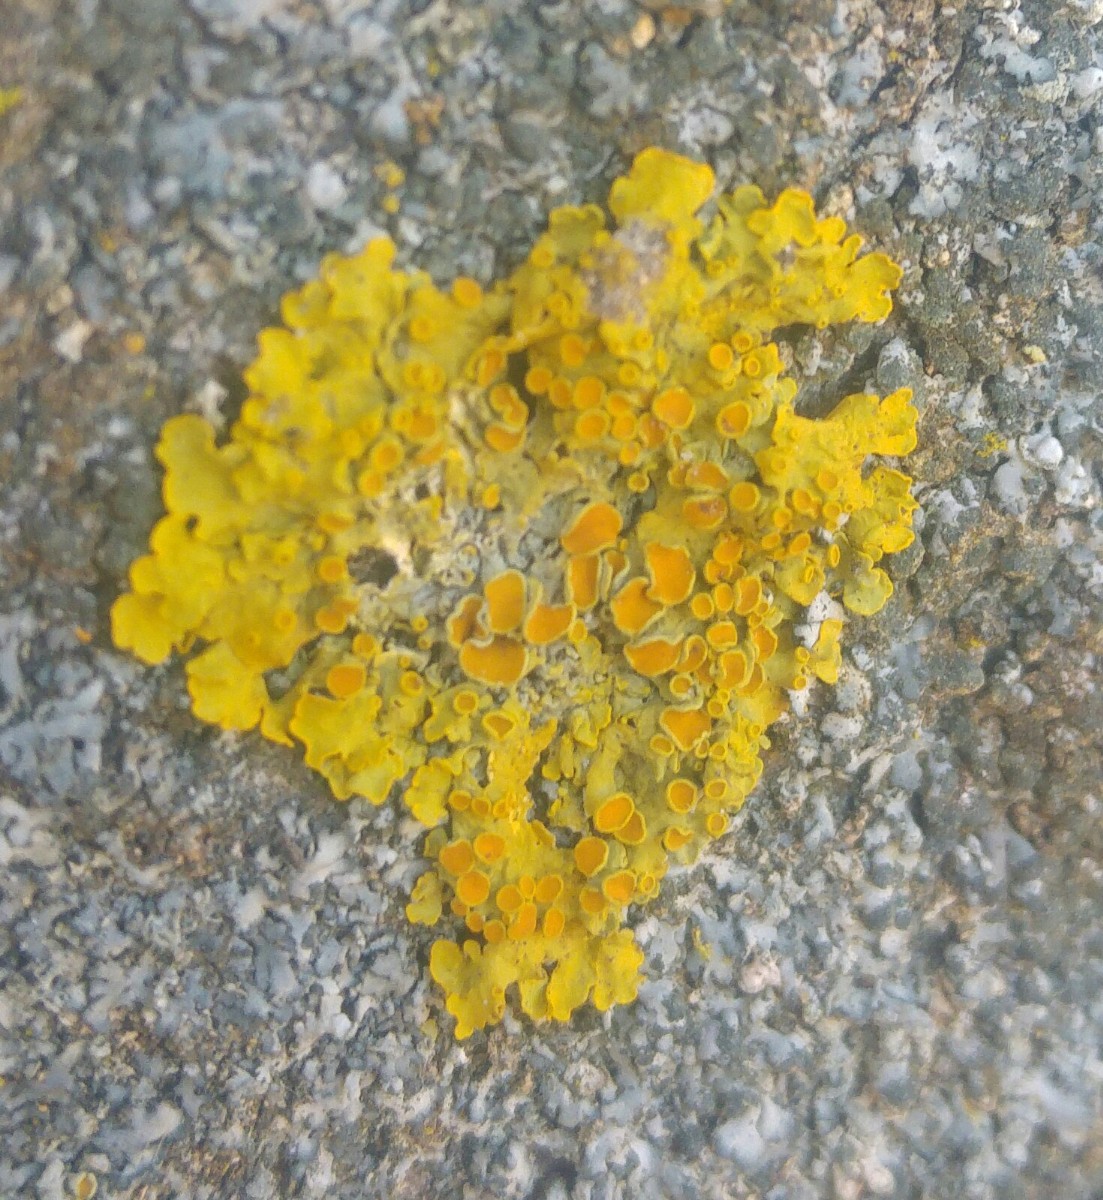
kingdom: Fungi
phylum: Ascomycota
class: Lecanoromycetes
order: Teloschistales
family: Teloschistaceae
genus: Xanthoria
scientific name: Xanthoria parietina
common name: almindelig væggelav
